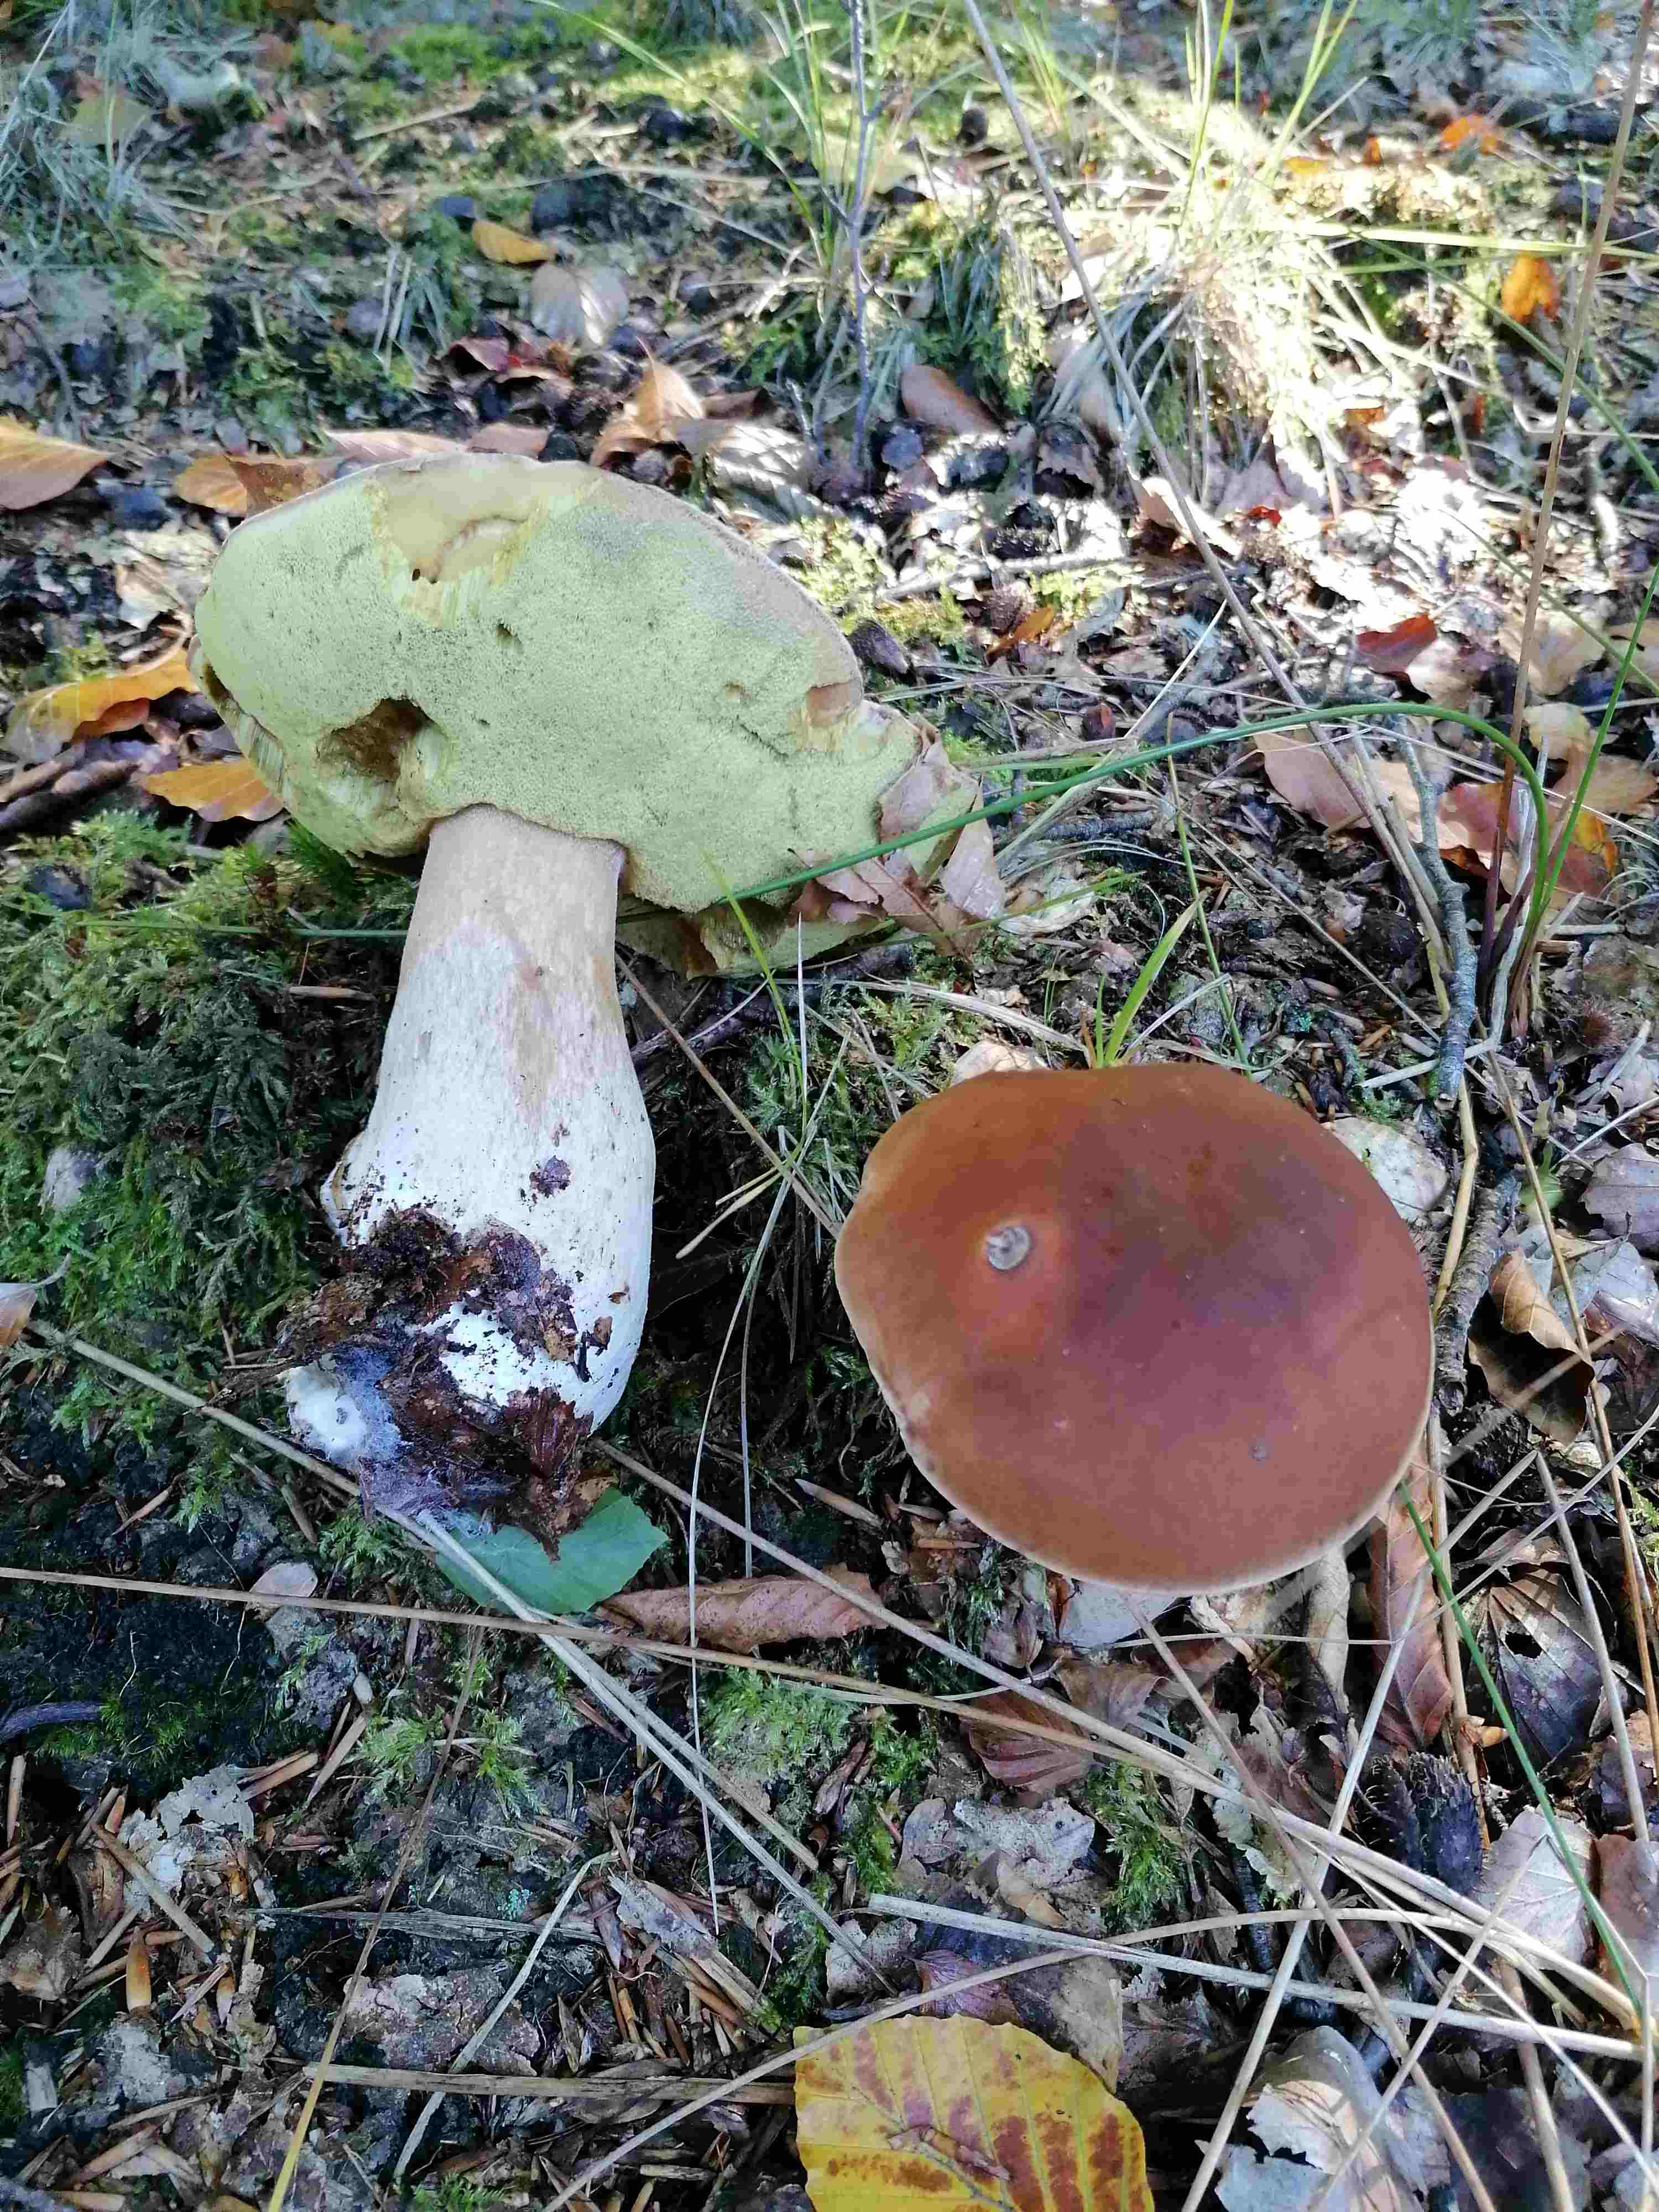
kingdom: Fungi
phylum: Basidiomycota
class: Agaricomycetes
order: Boletales
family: Boletaceae
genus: Boletus
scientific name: Boletus edulis
